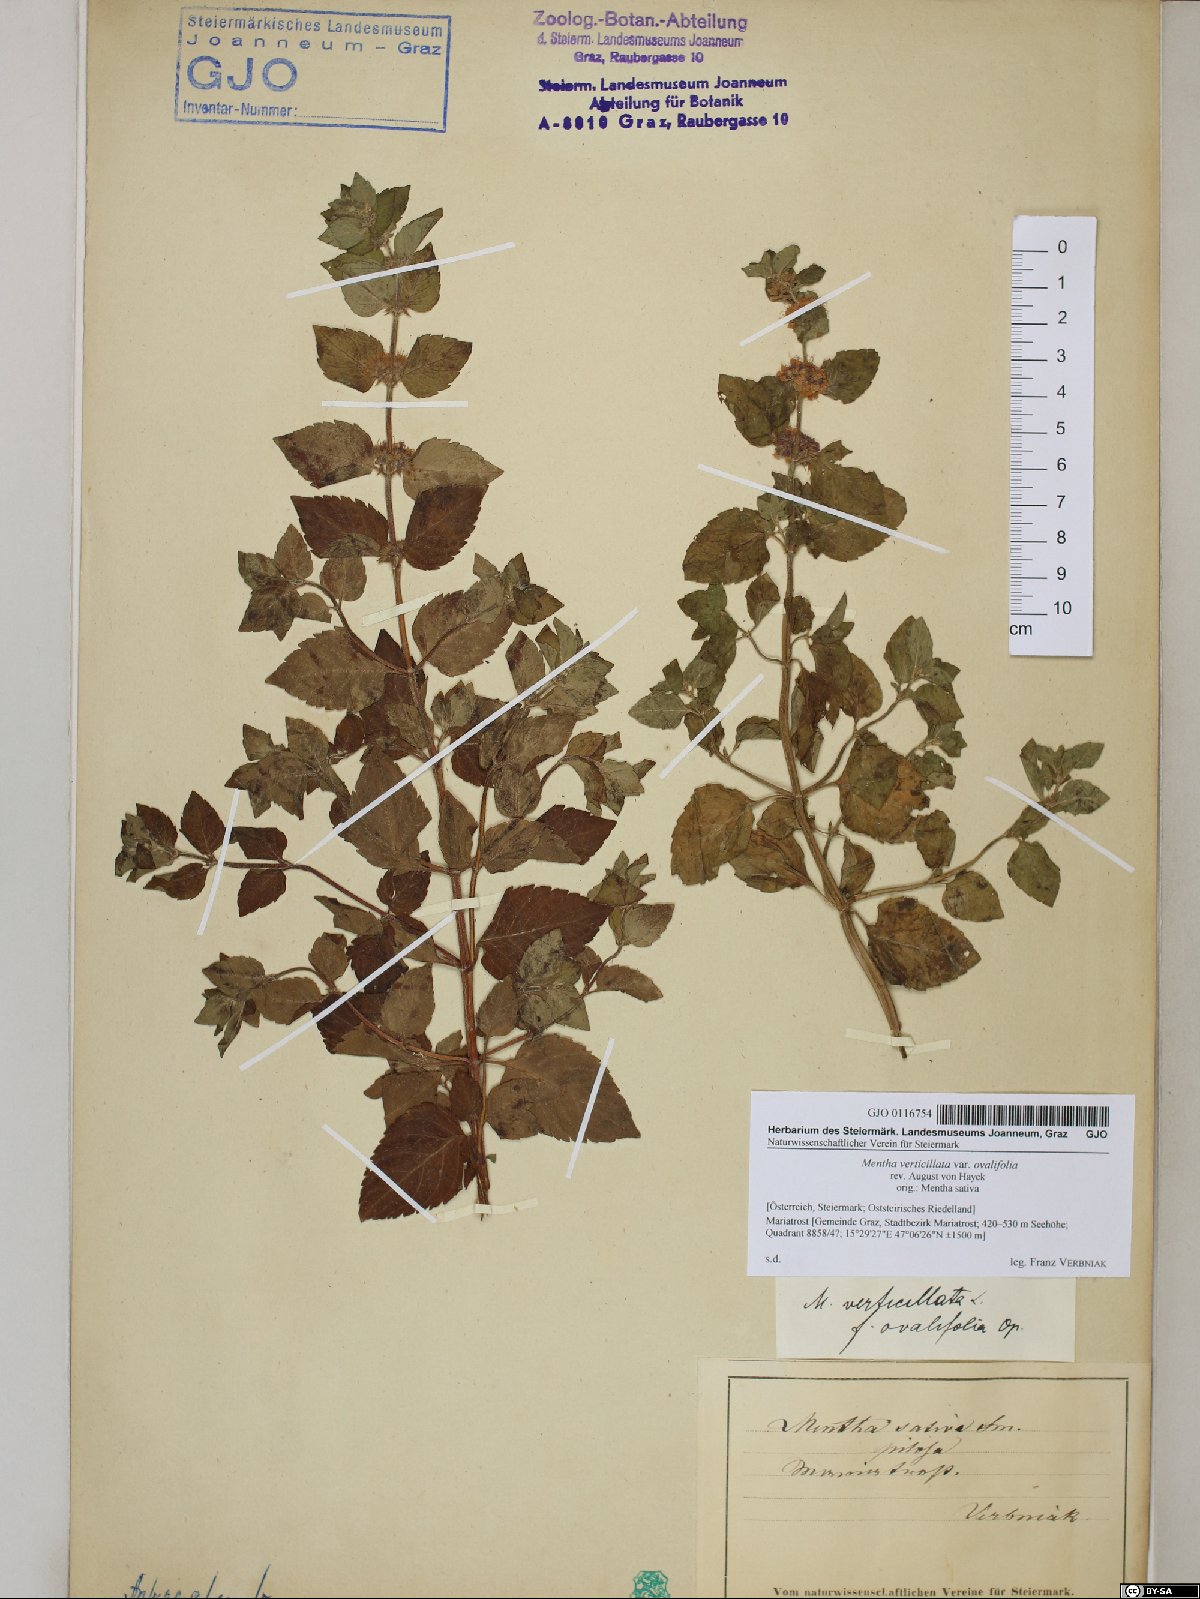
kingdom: Plantae
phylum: Tracheophyta
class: Magnoliopsida
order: Lamiales
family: Lamiaceae
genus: Mentha
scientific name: Mentha verticillata
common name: Mint
